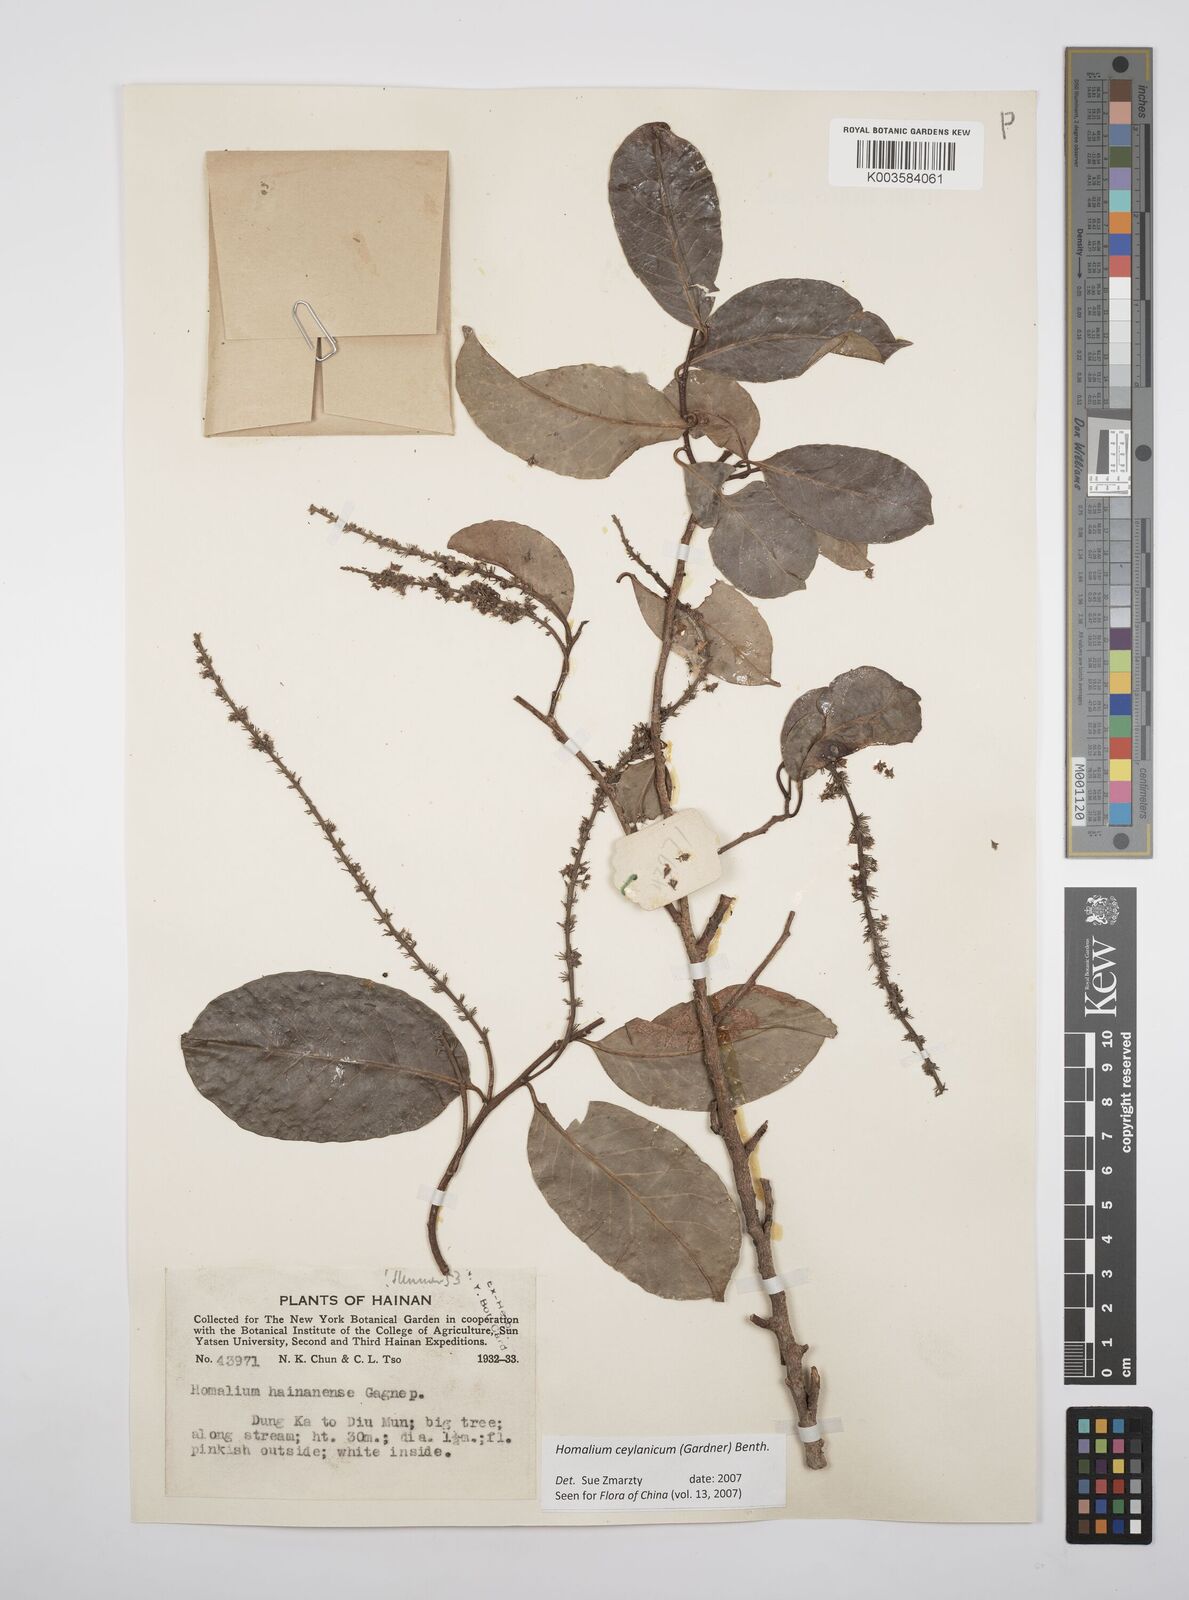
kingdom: Plantae
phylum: Tracheophyta
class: Magnoliopsida
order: Malpighiales
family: Salicaceae
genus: Homalium
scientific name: Homalium ceylanicum
